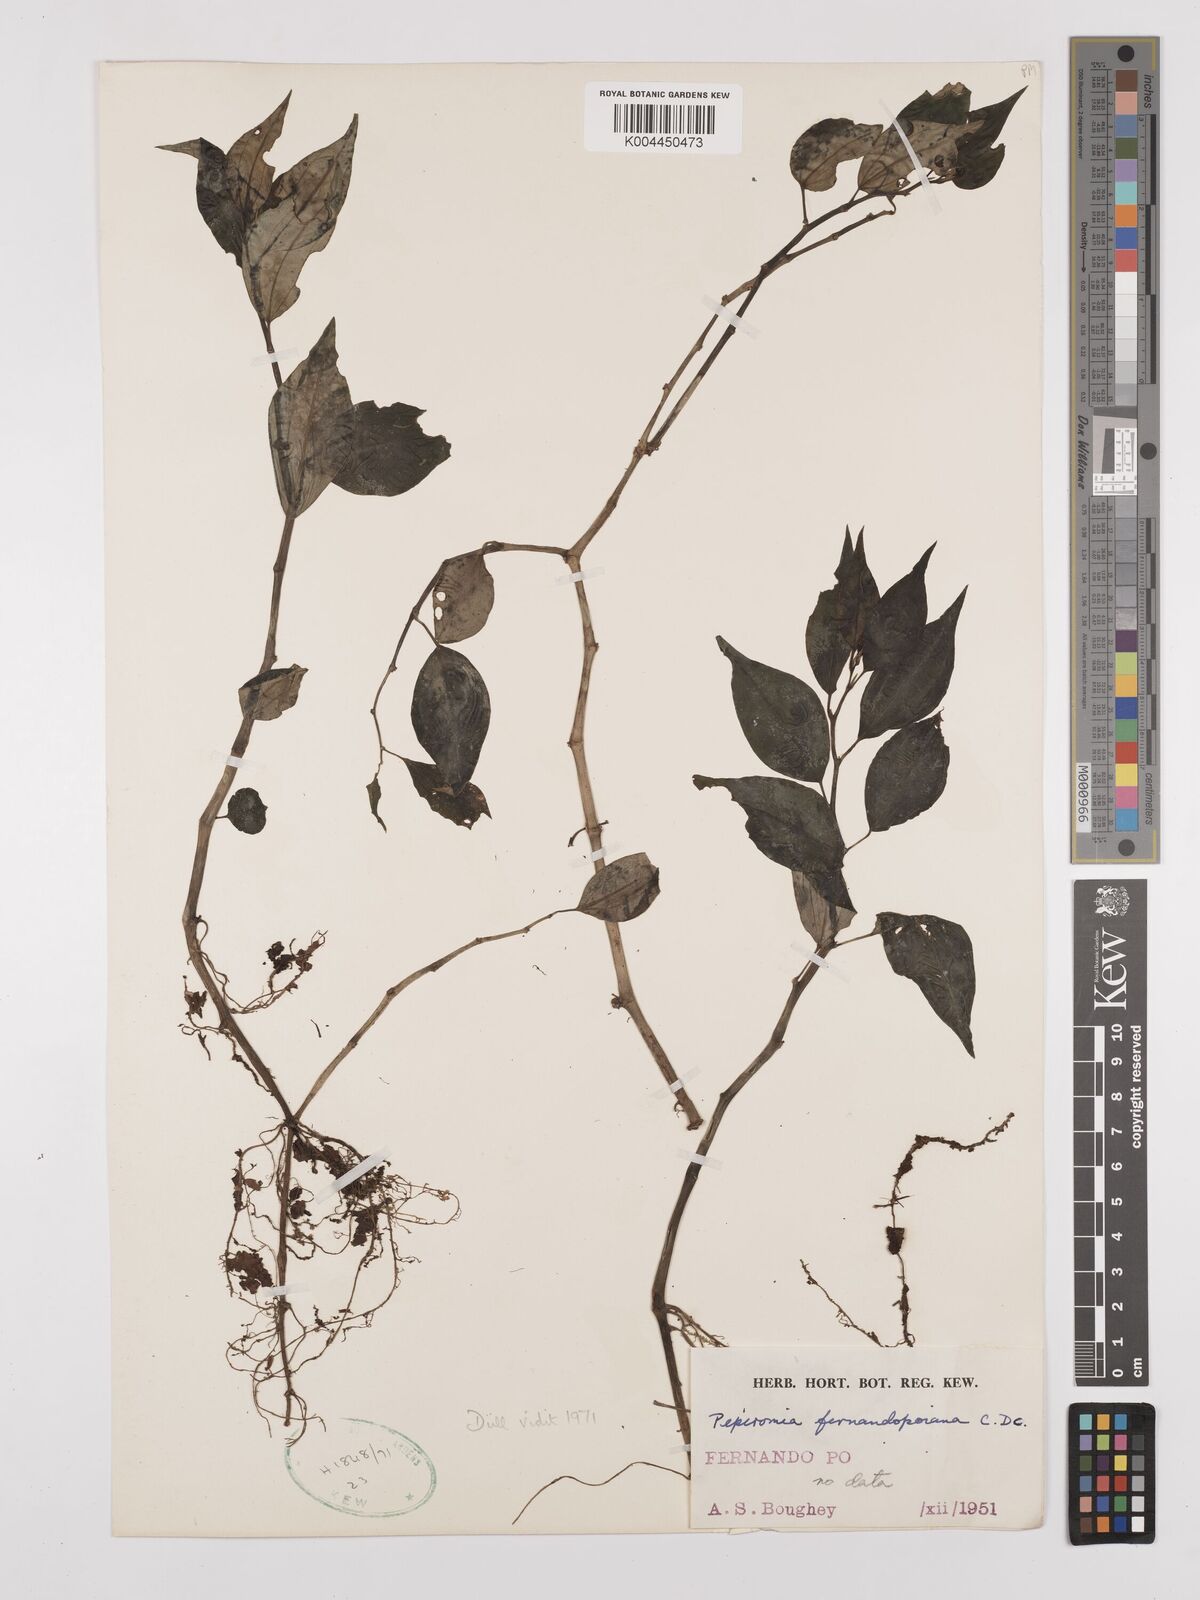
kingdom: Plantae
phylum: Tracheophyta
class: Magnoliopsida
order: Piperales
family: Piperaceae
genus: Peperomia
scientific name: Peperomia fernandopoiana
